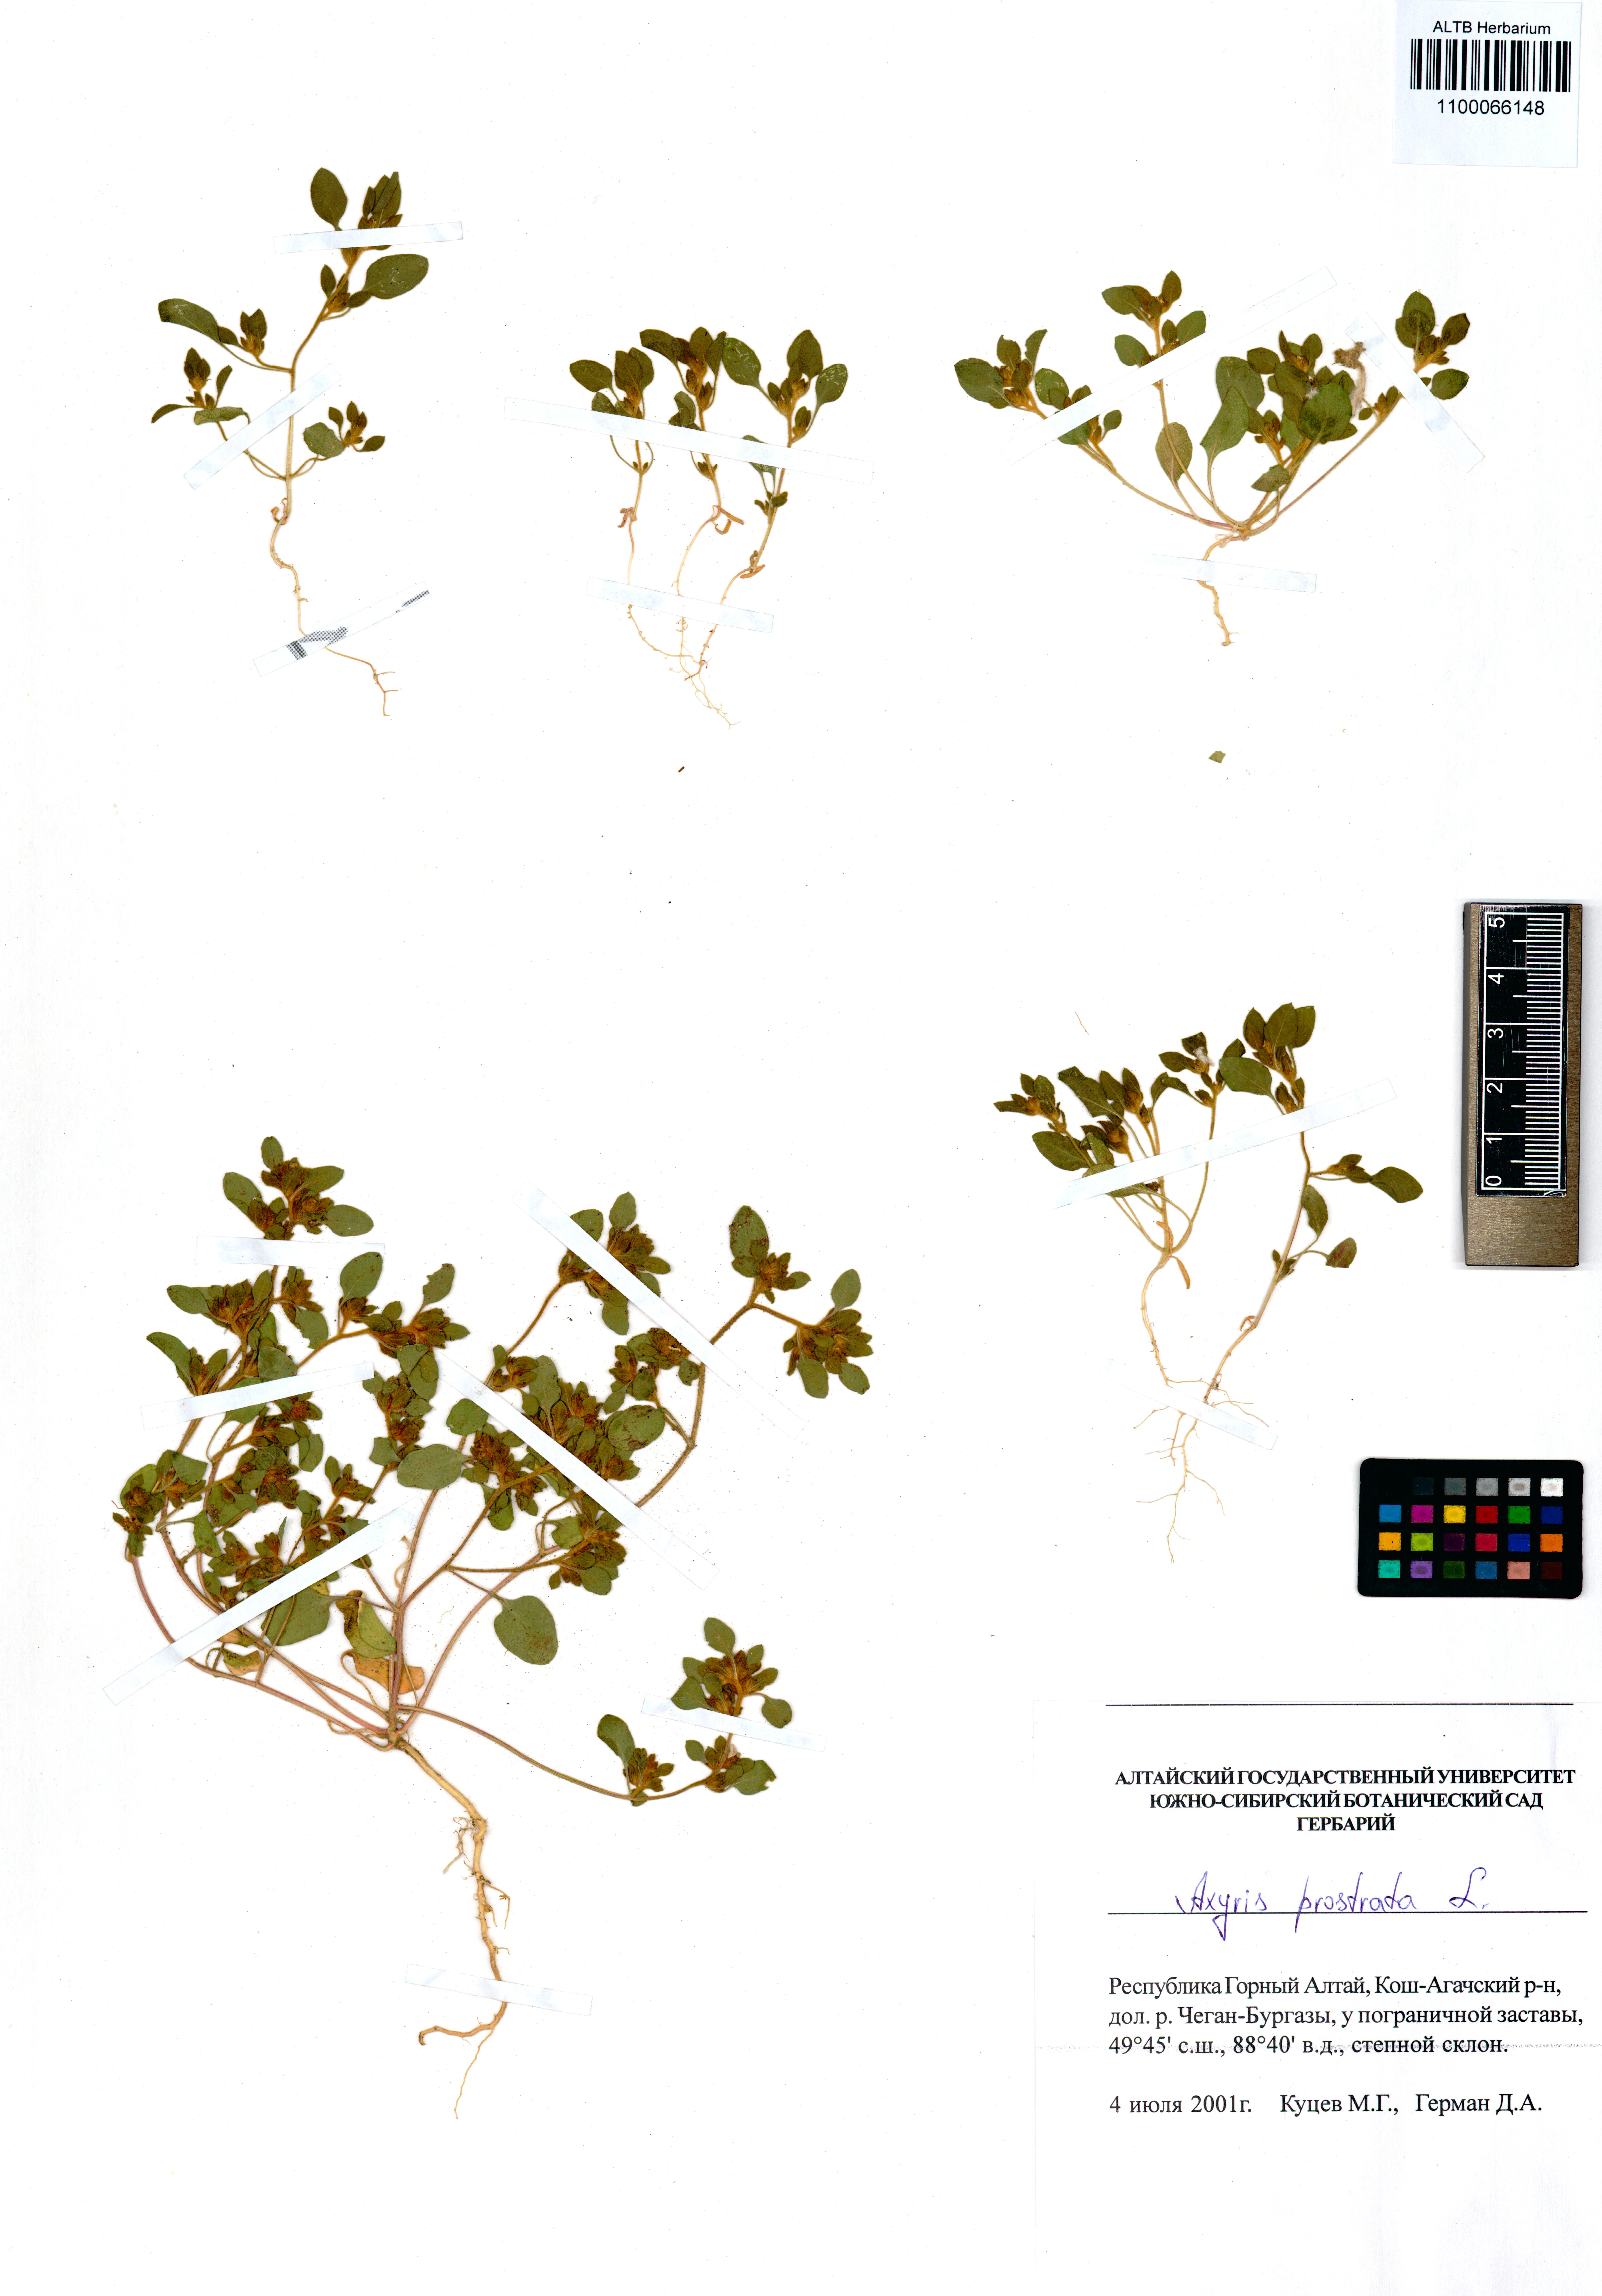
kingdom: Plantae
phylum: Tracheophyta
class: Magnoliopsida
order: Caryophyllales
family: Amaranthaceae
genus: Axyris
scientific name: Axyris prostrata
